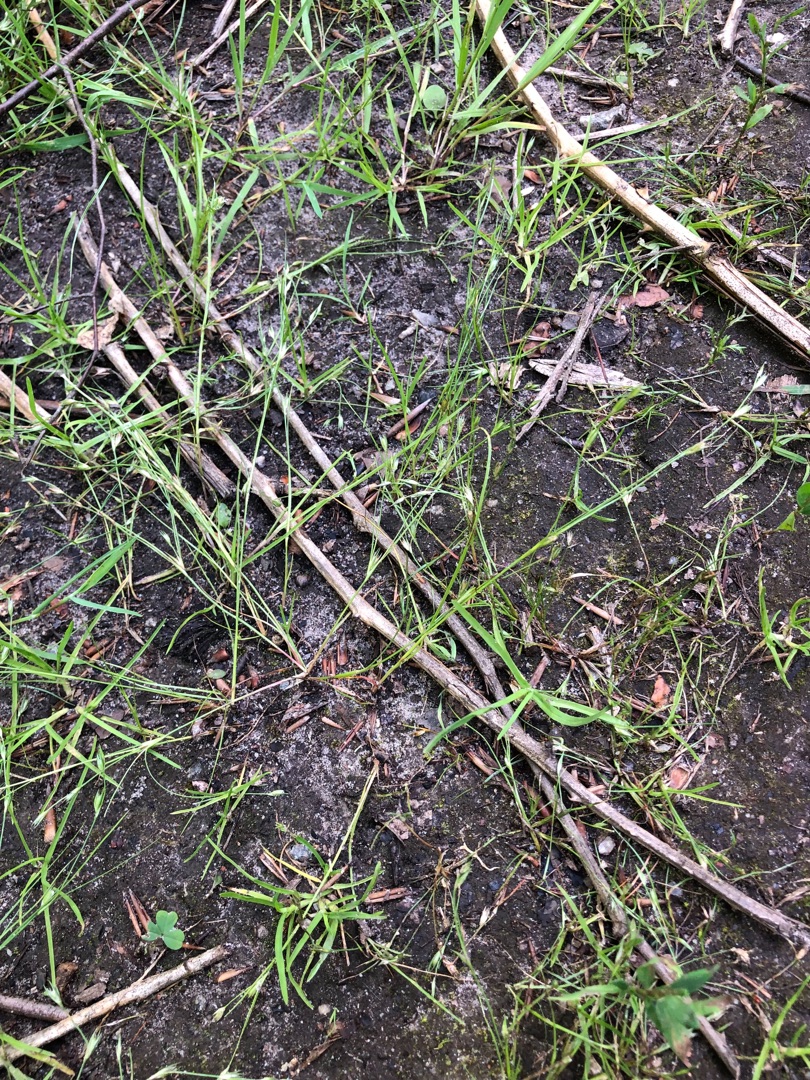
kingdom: Plantae
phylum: Tracheophyta
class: Liliopsida
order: Poales
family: Juncaceae
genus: Juncus
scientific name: Juncus bufonius
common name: Tudse-siv
